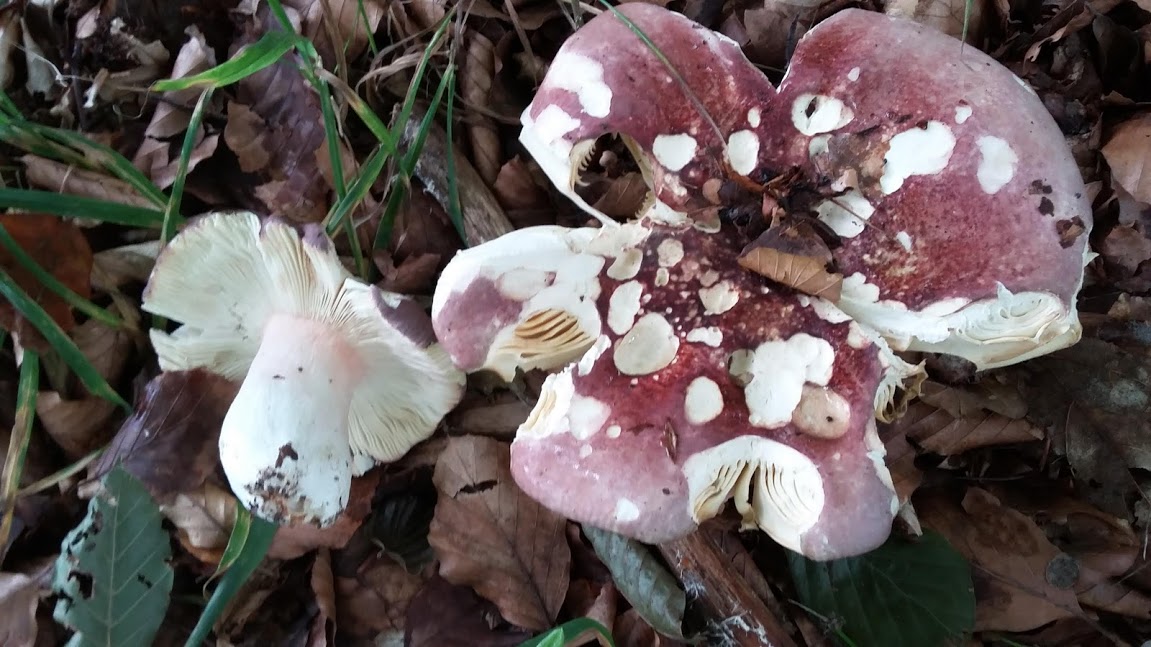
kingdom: Fungi
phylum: Basidiomycota
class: Agaricomycetes
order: Russulales
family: Russulaceae
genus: Russula
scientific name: Russula olivacea
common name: stor skørhat
